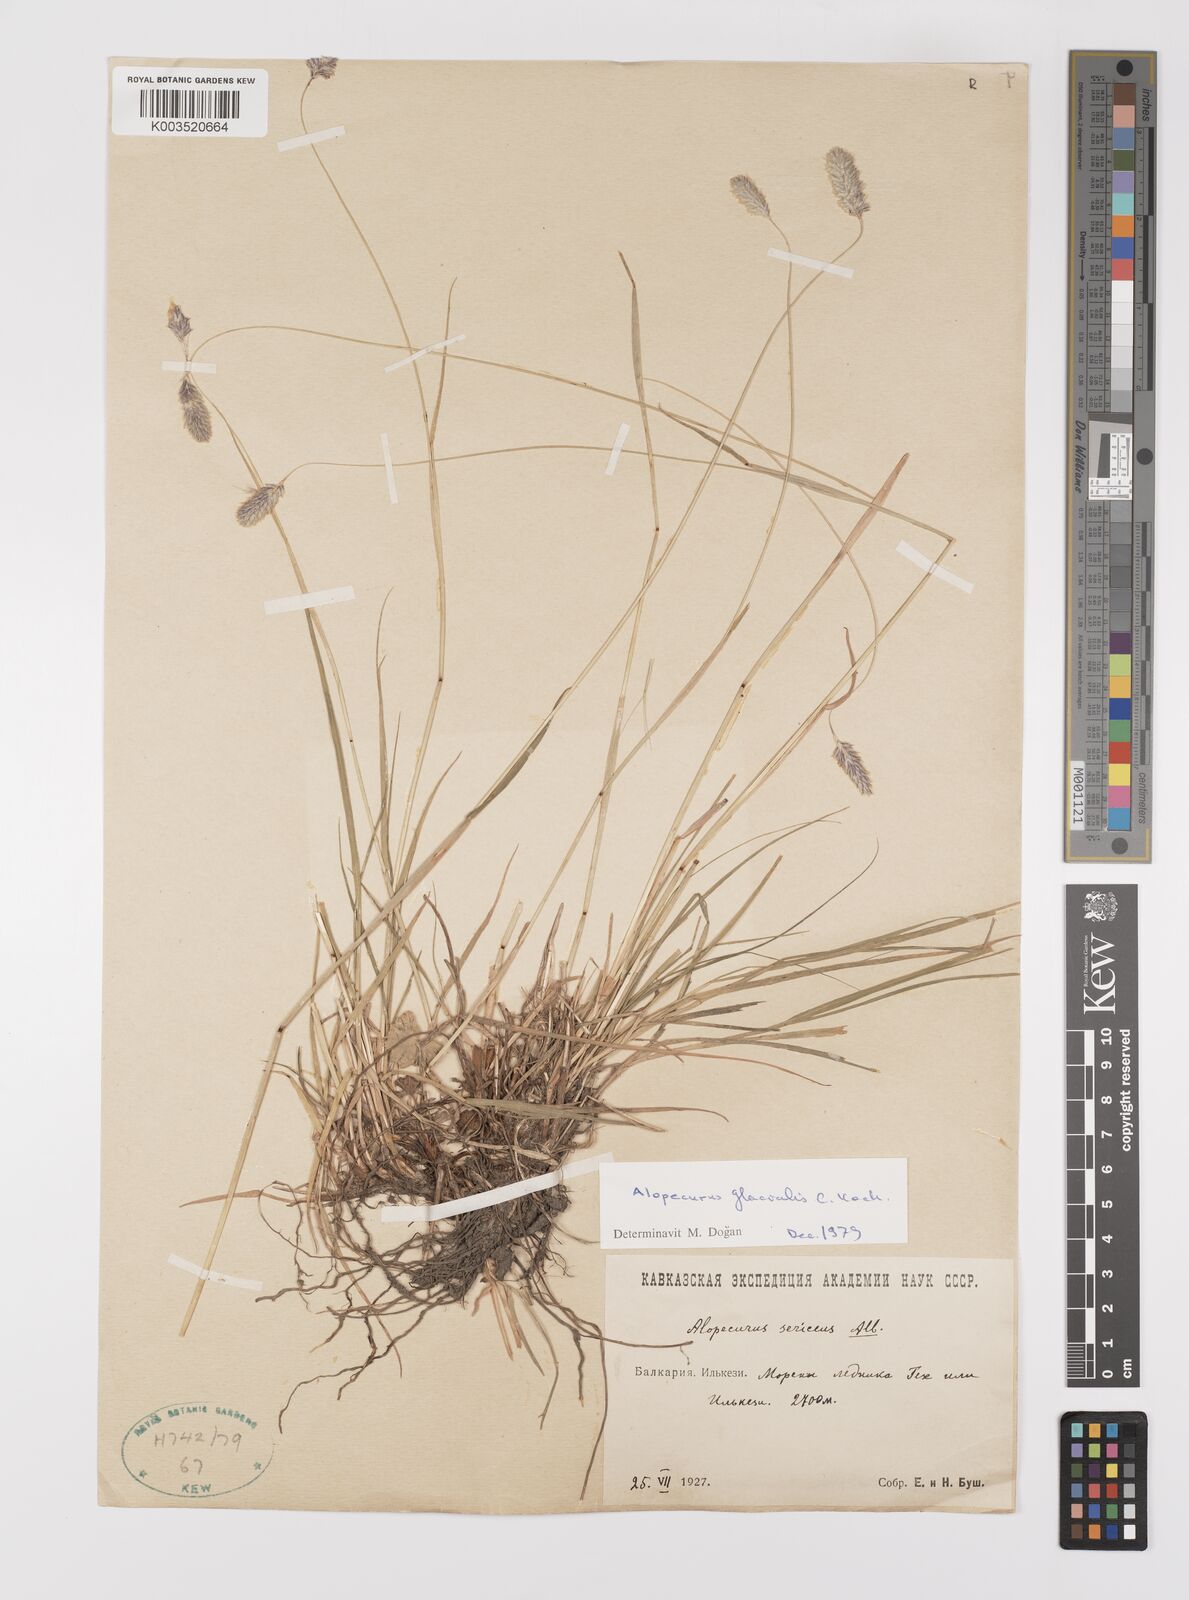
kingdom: Plantae
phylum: Tracheophyta
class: Liliopsida
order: Poales
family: Poaceae
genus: Alopecurus
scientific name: Alopecurus ponticus
